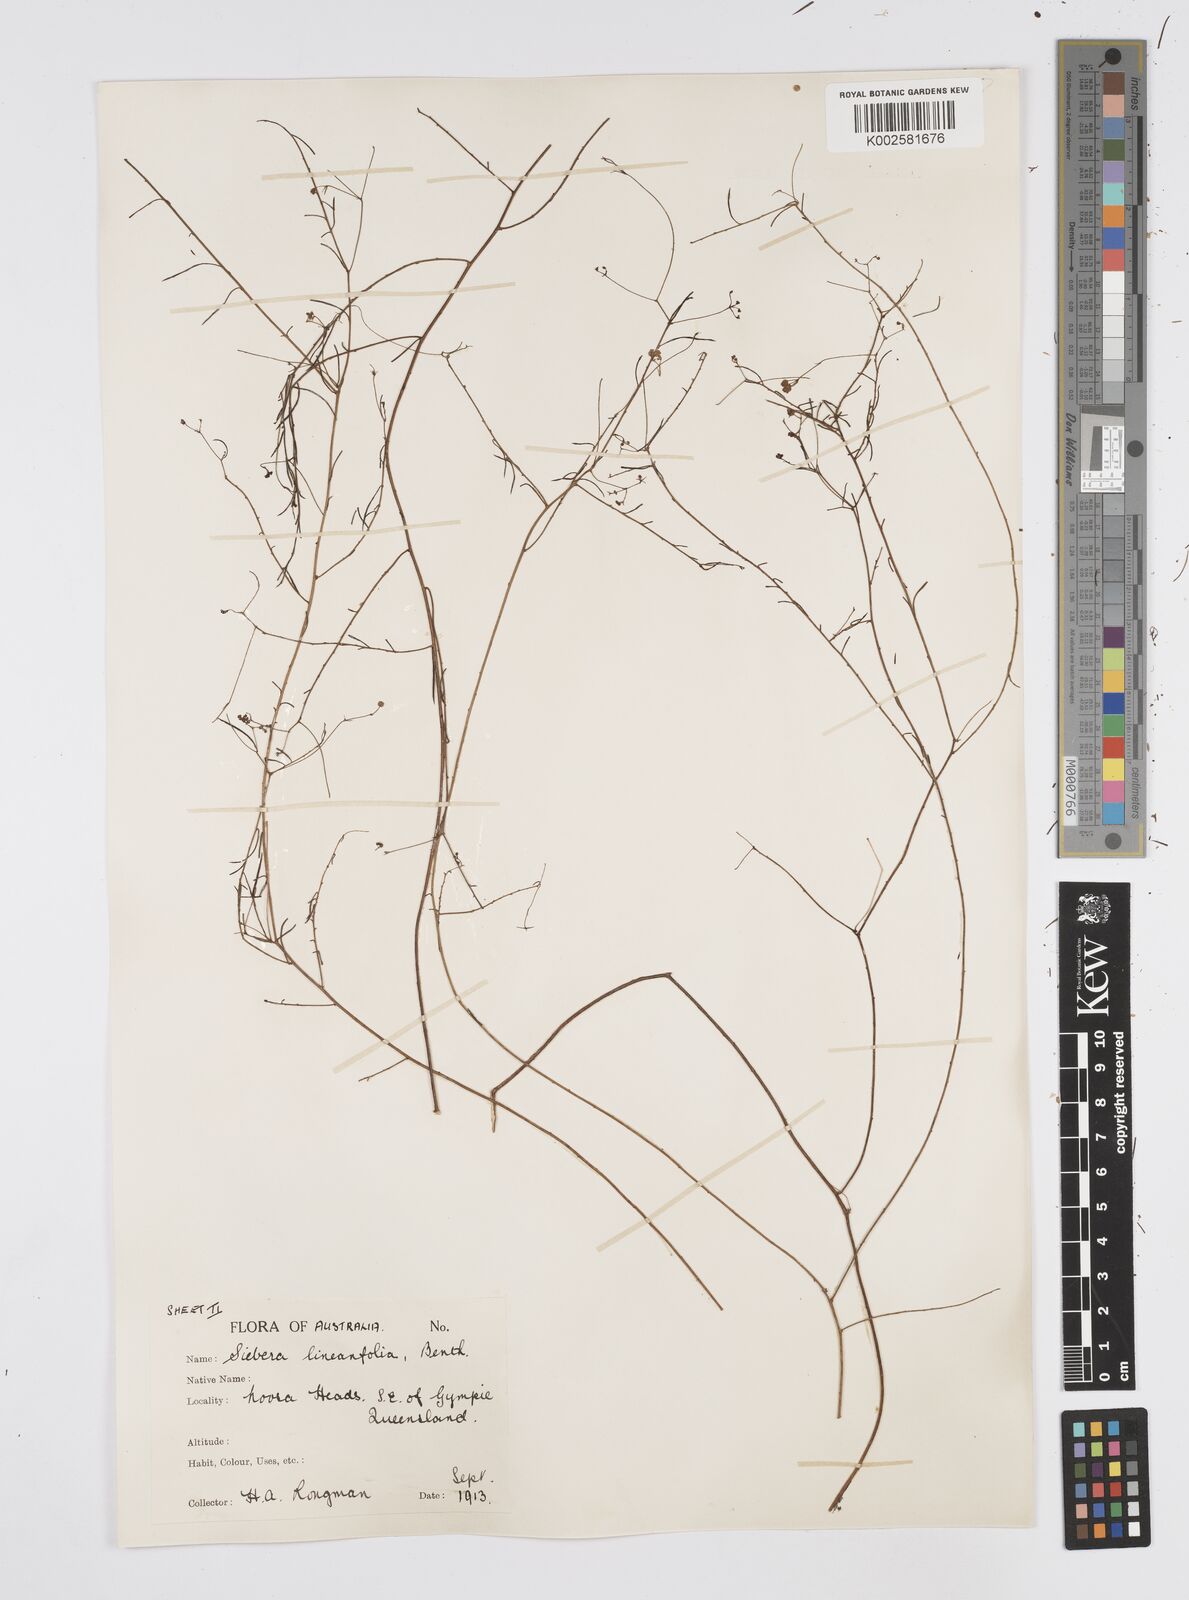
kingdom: Plantae
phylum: Tracheophyta
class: Magnoliopsida
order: Apiales
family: Apiaceae
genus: Platysace
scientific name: Platysace linearifolia
